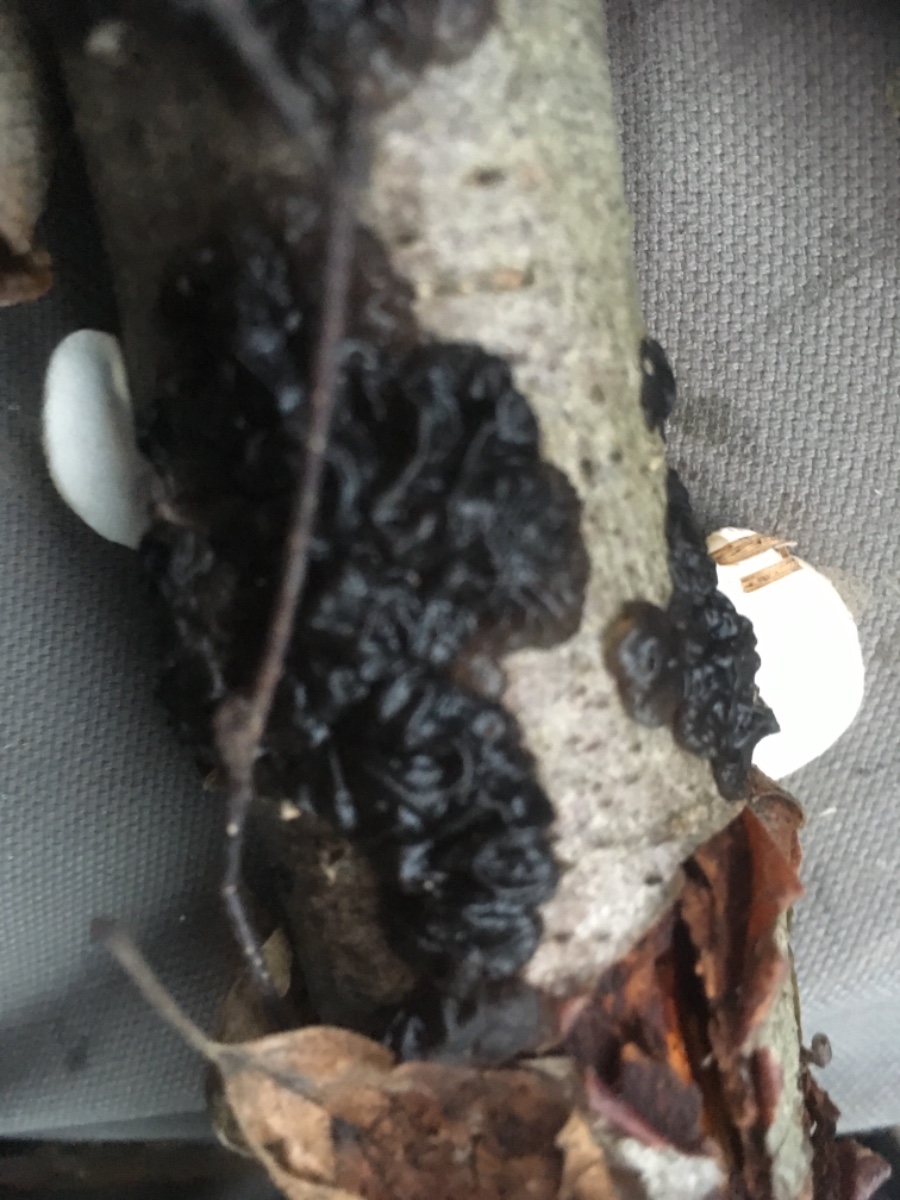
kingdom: Fungi
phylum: Basidiomycota
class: Agaricomycetes
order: Auriculariales
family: Auriculariaceae
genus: Exidia
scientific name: Exidia nigricans
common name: almindelig bævretop
